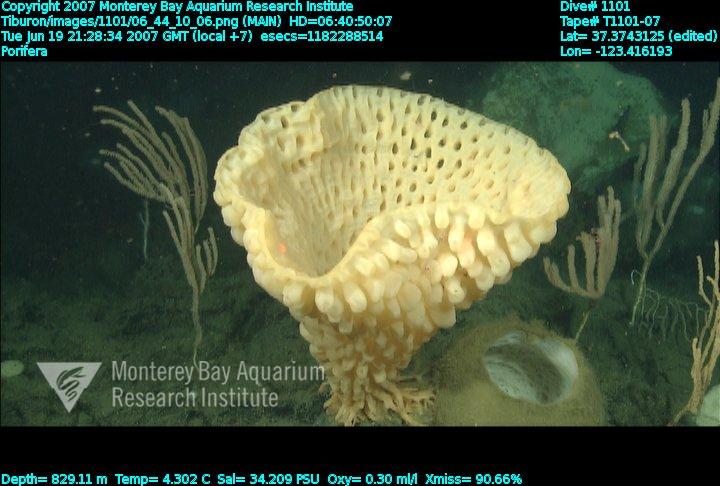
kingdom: Animalia
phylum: Porifera
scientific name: Porifera
